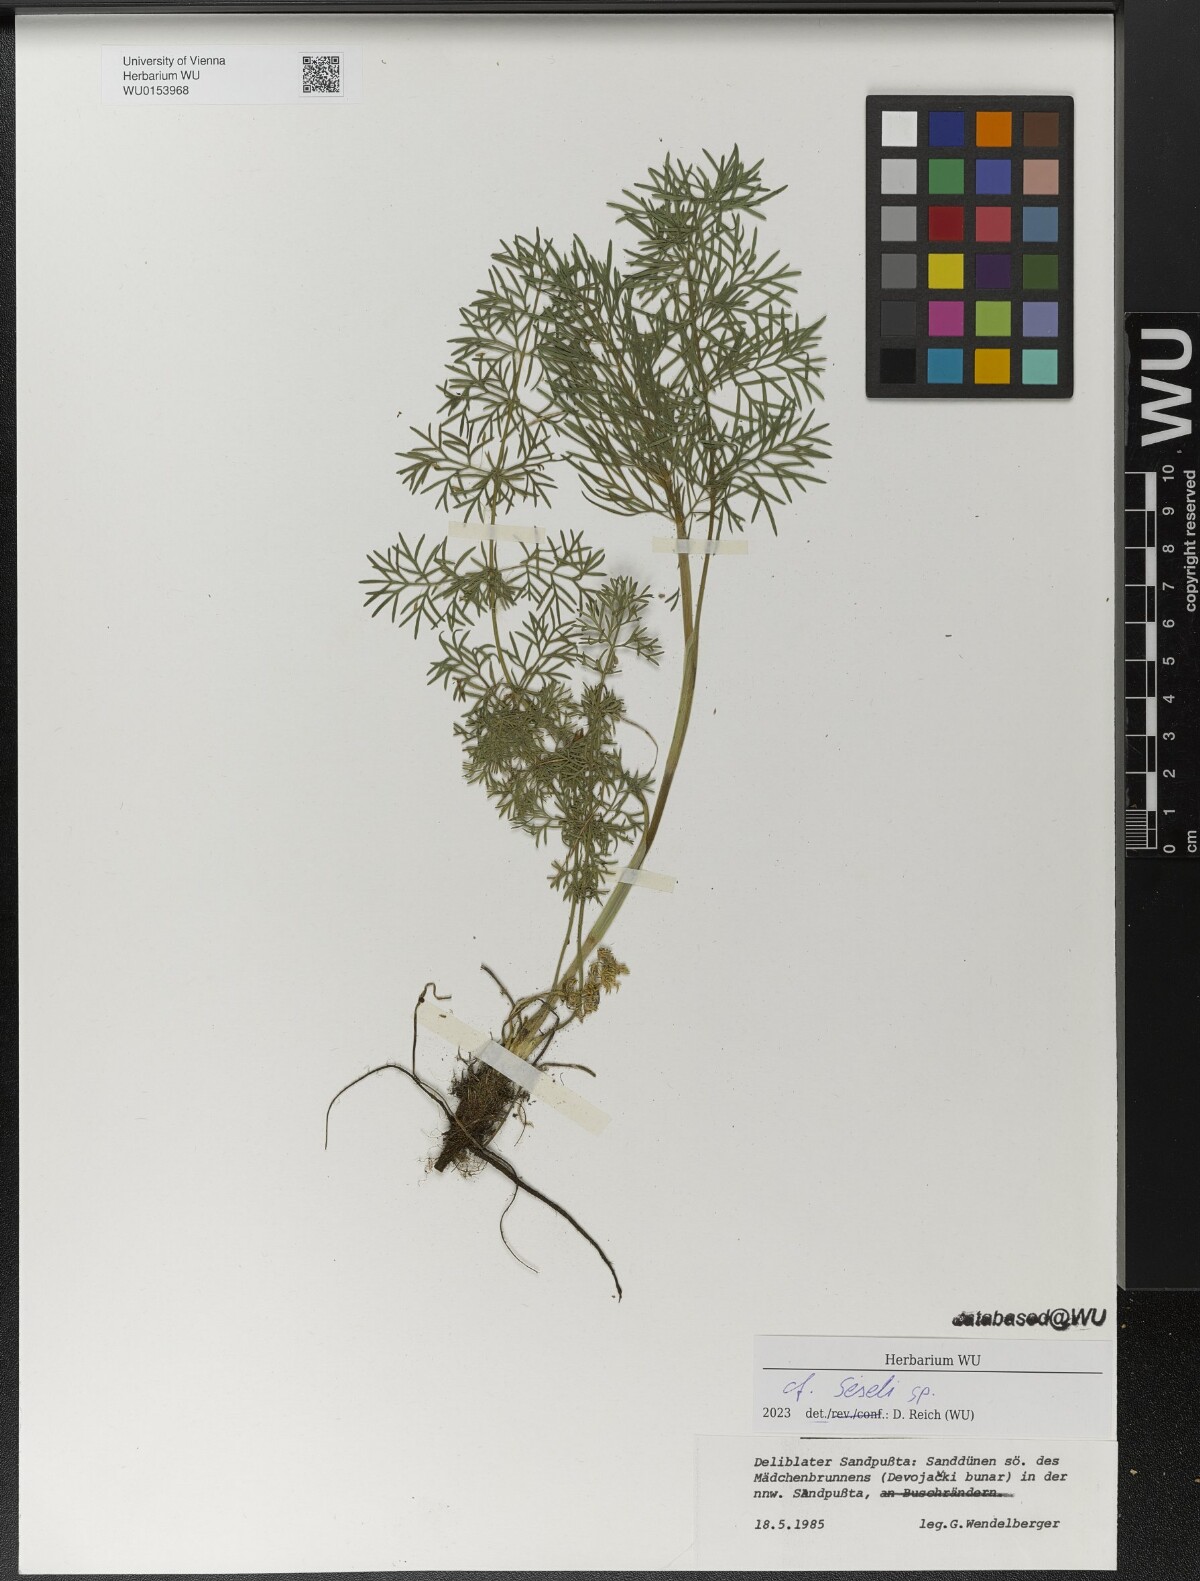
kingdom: Plantae
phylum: Tracheophyta
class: Magnoliopsida
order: Apiales
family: Apiaceae
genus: Seseli
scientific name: Seseli
